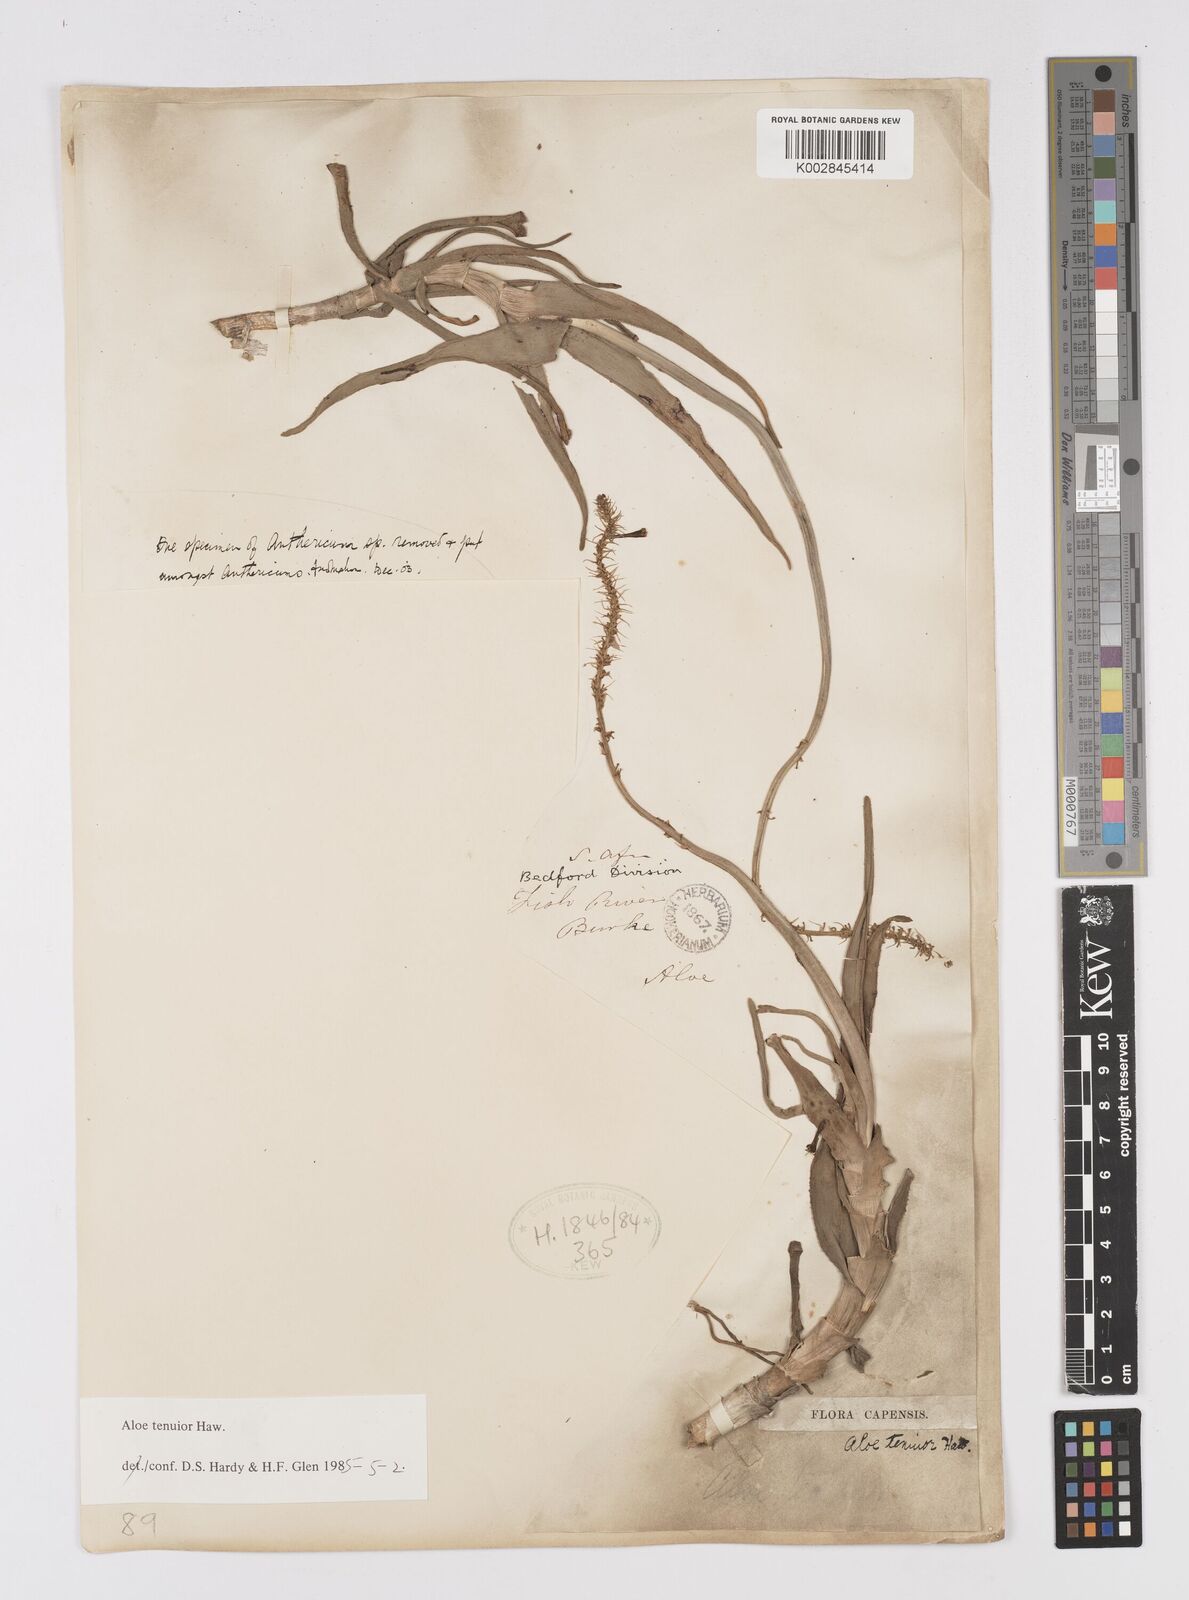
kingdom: Plantae
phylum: Tracheophyta
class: Liliopsida
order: Asparagales
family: Asphodelaceae
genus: Aloiampelos
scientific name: Aloiampelos tenuior
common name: Fence aloe
